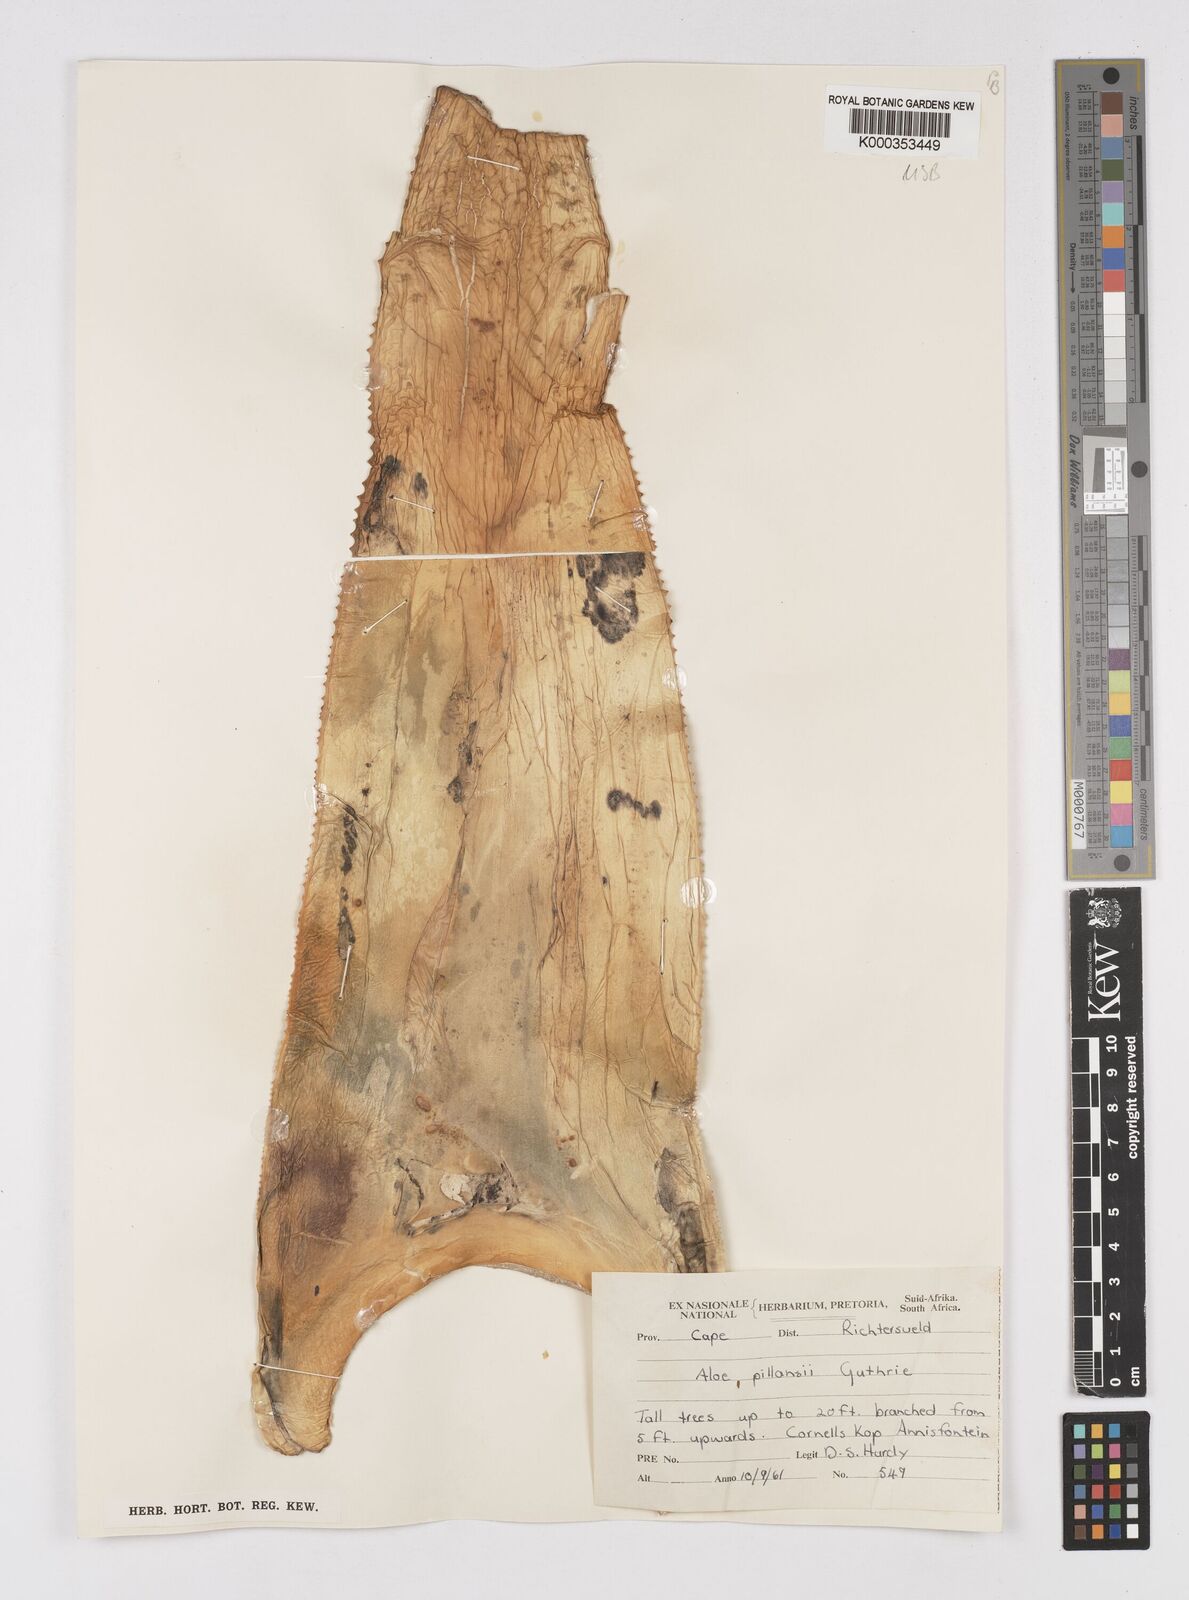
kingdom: Plantae
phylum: Tracheophyta
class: Liliopsida
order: Asparagales
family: Asphodelaceae
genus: Aloidendron
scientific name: Aloidendron pillansii
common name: Bastard quiver tree
